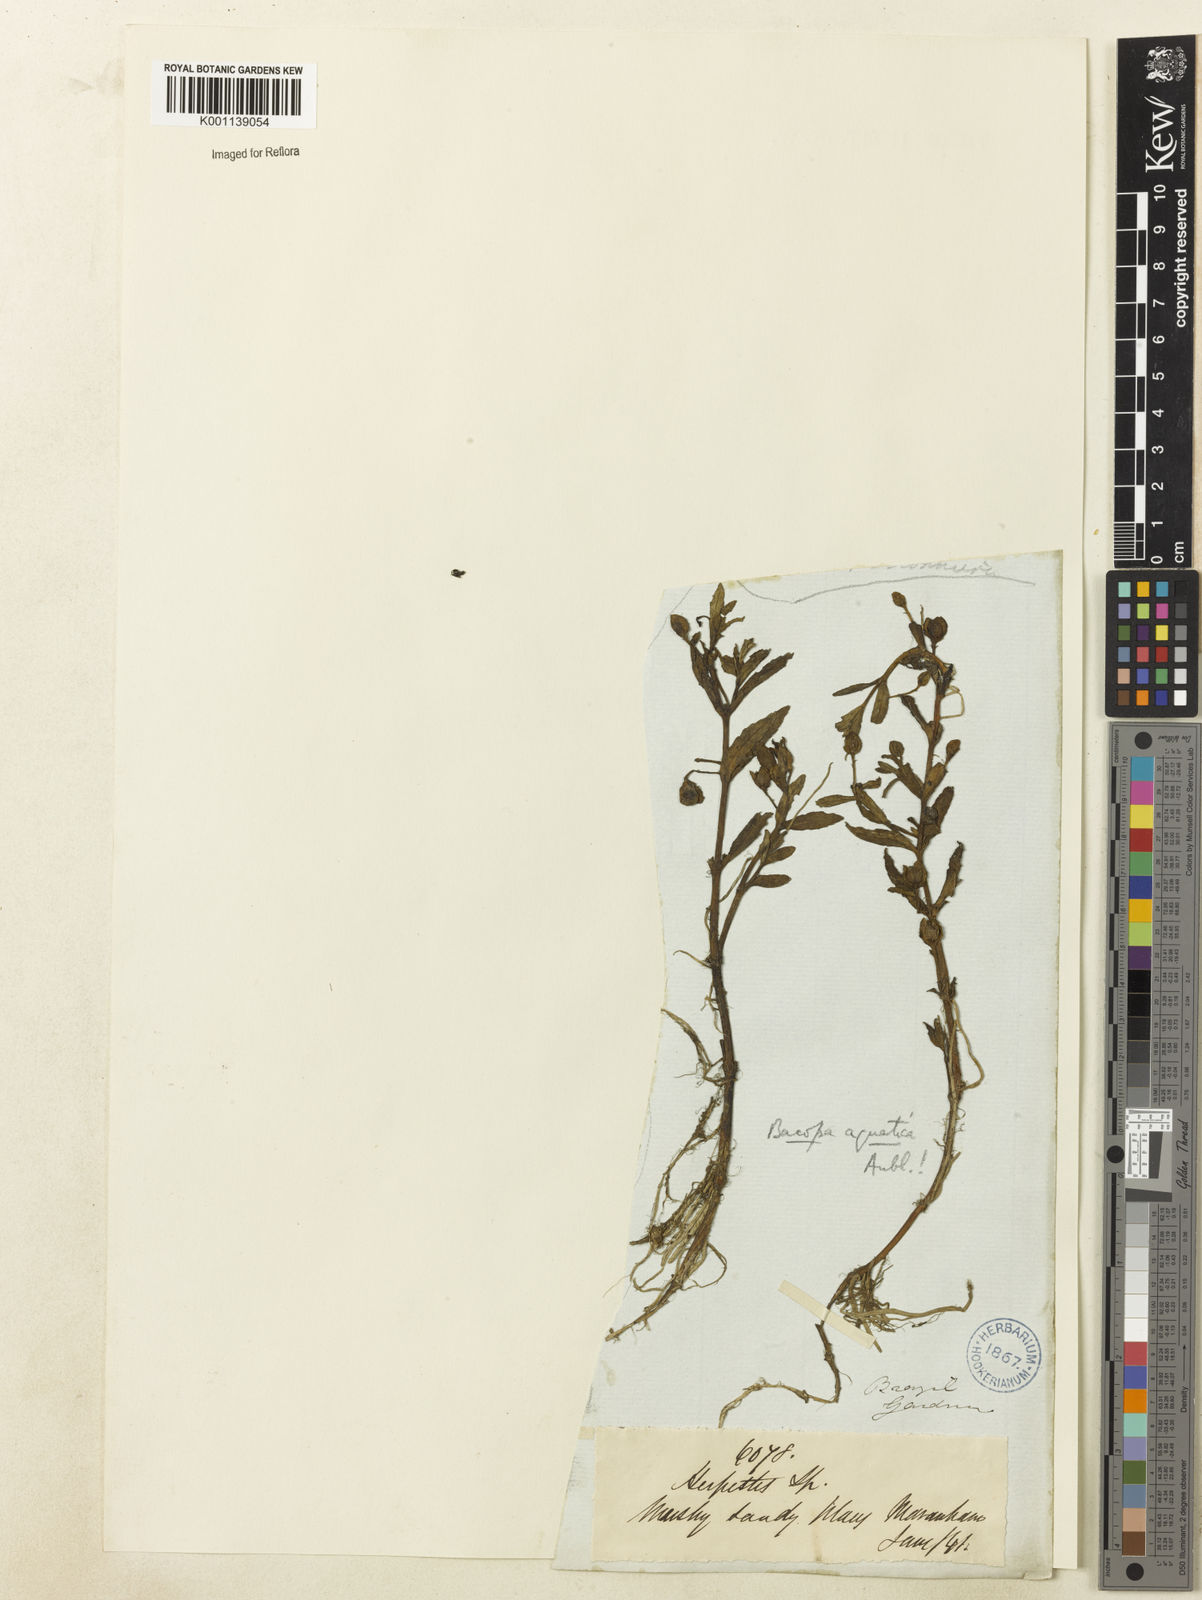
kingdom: Plantae
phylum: Tracheophyta
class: Magnoliopsida
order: Lamiales
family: Plantaginaceae
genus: Bacopa
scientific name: Bacopa aquatica
